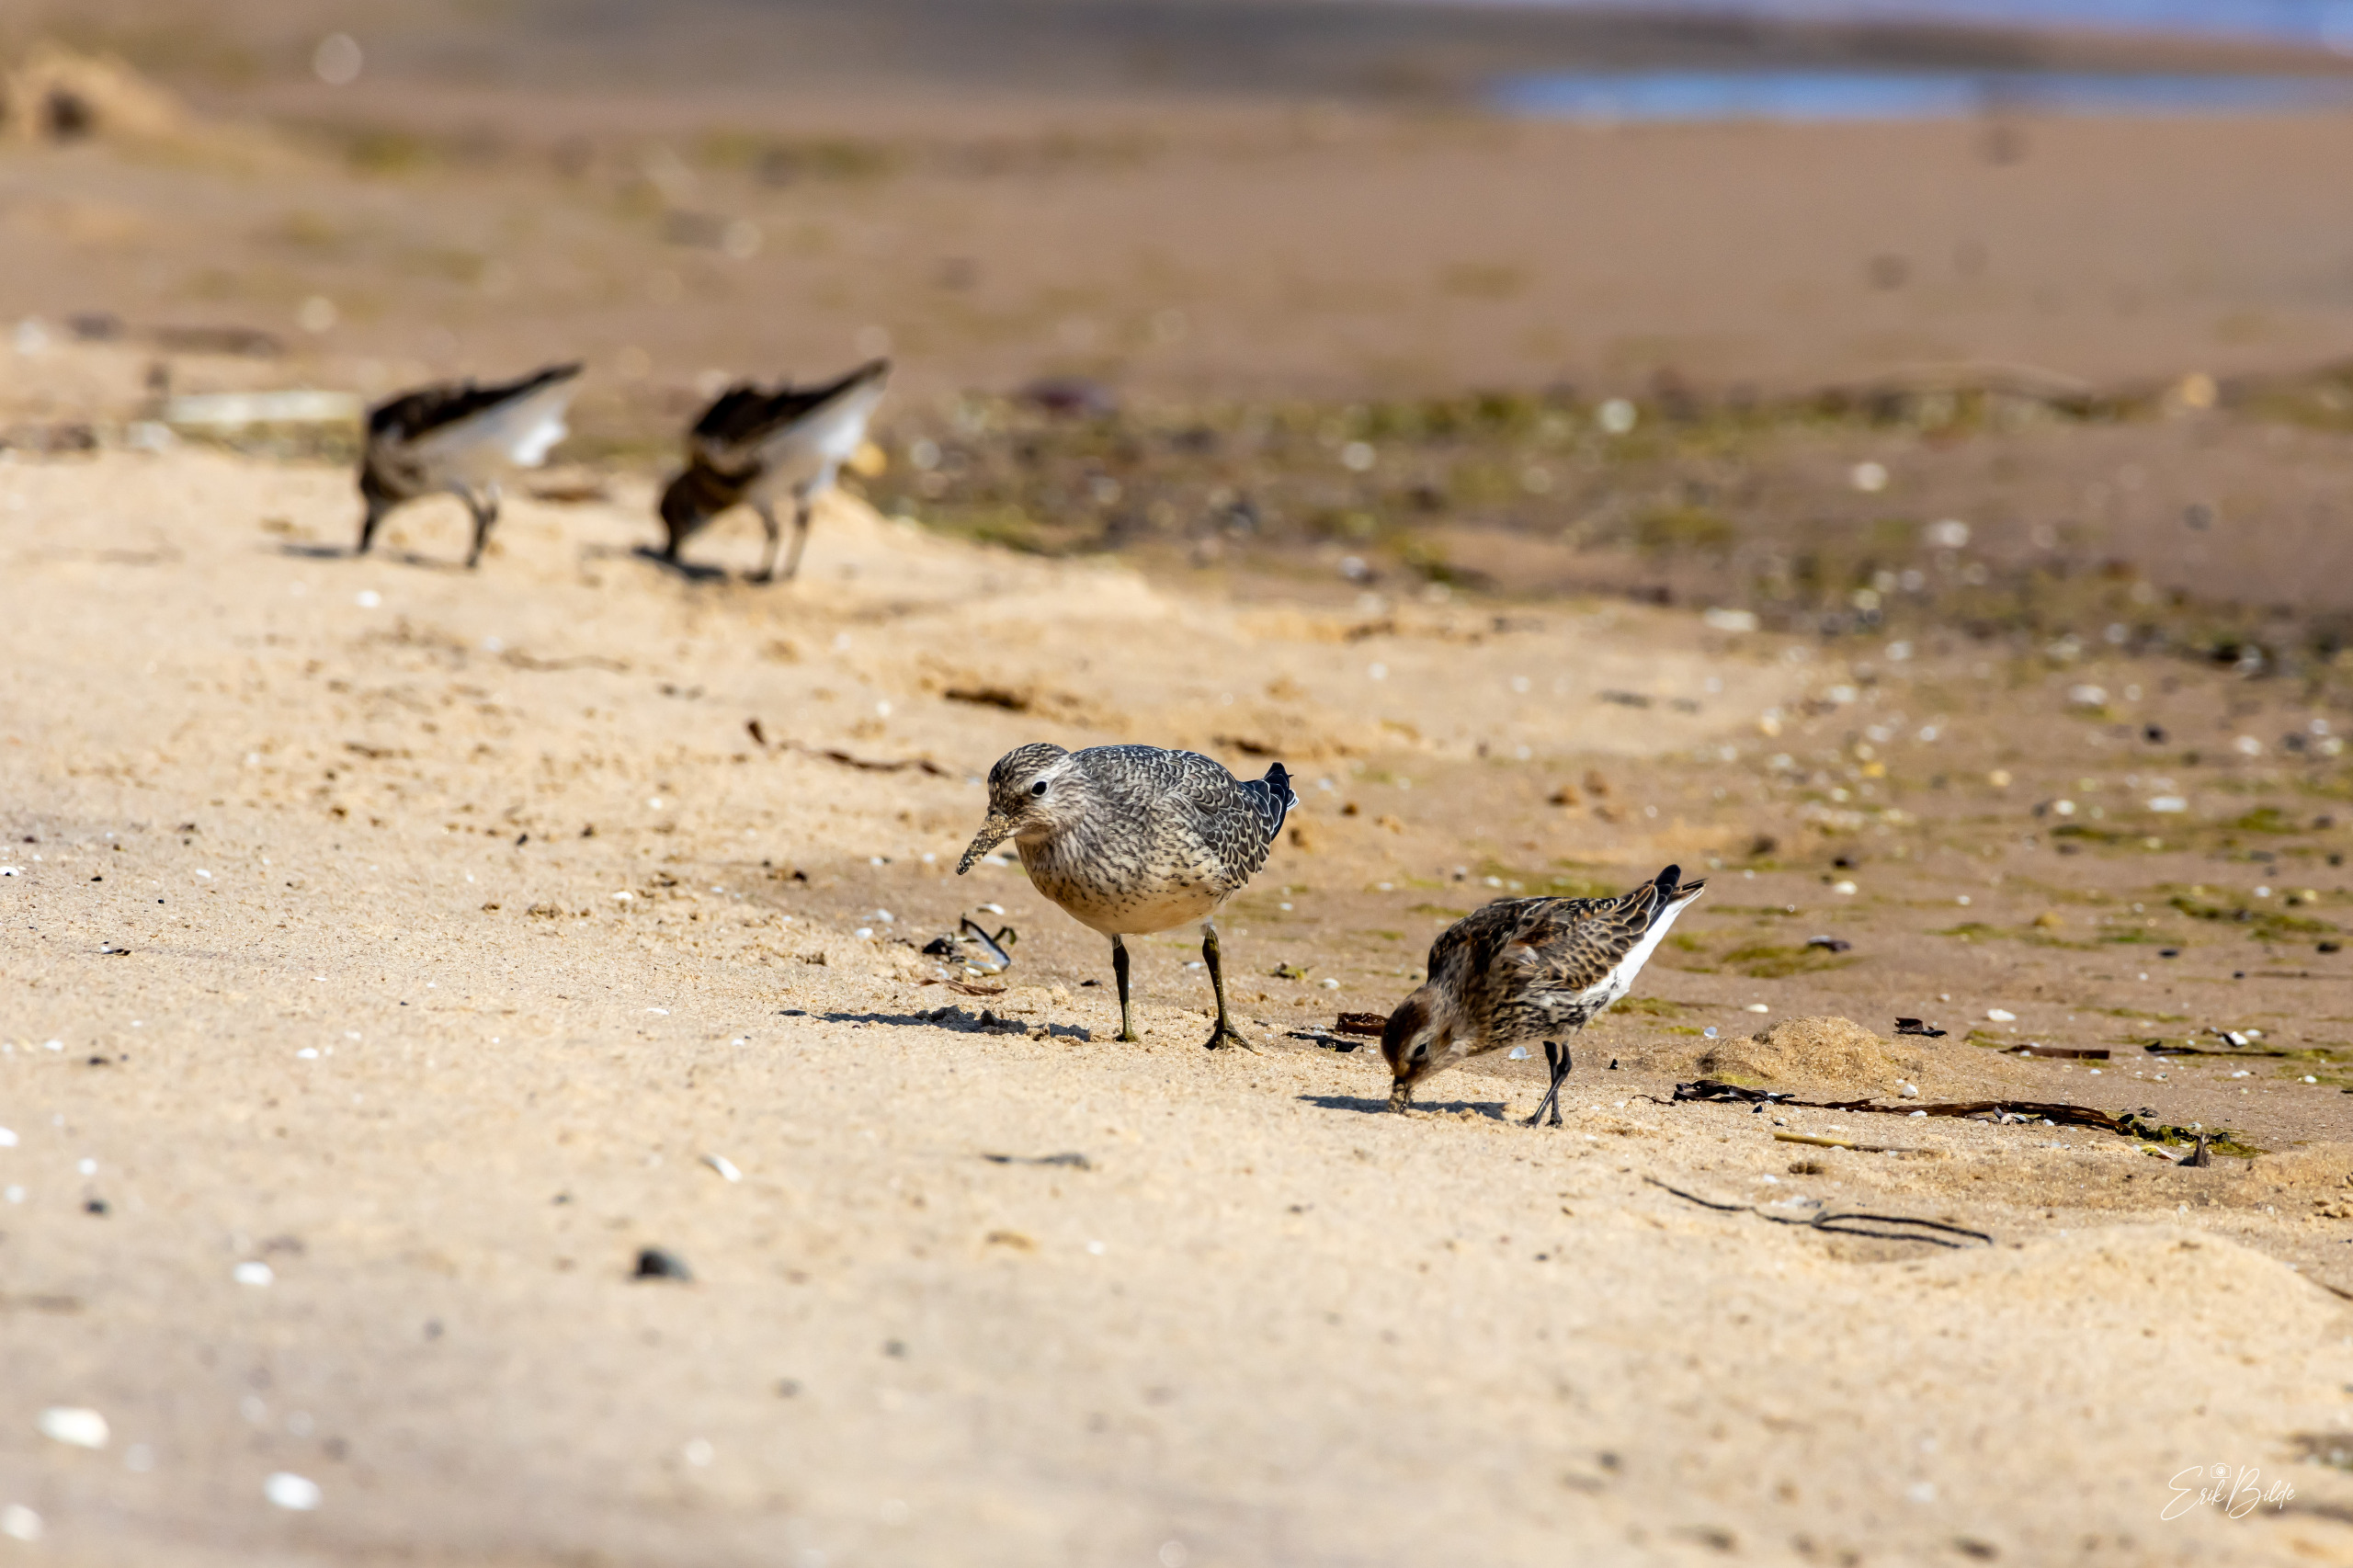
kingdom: Animalia
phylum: Chordata
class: Aves
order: Charadriiformes
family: Scolopacidae
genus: Calidris
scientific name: Calidris canutus
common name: Islandsk ryle
